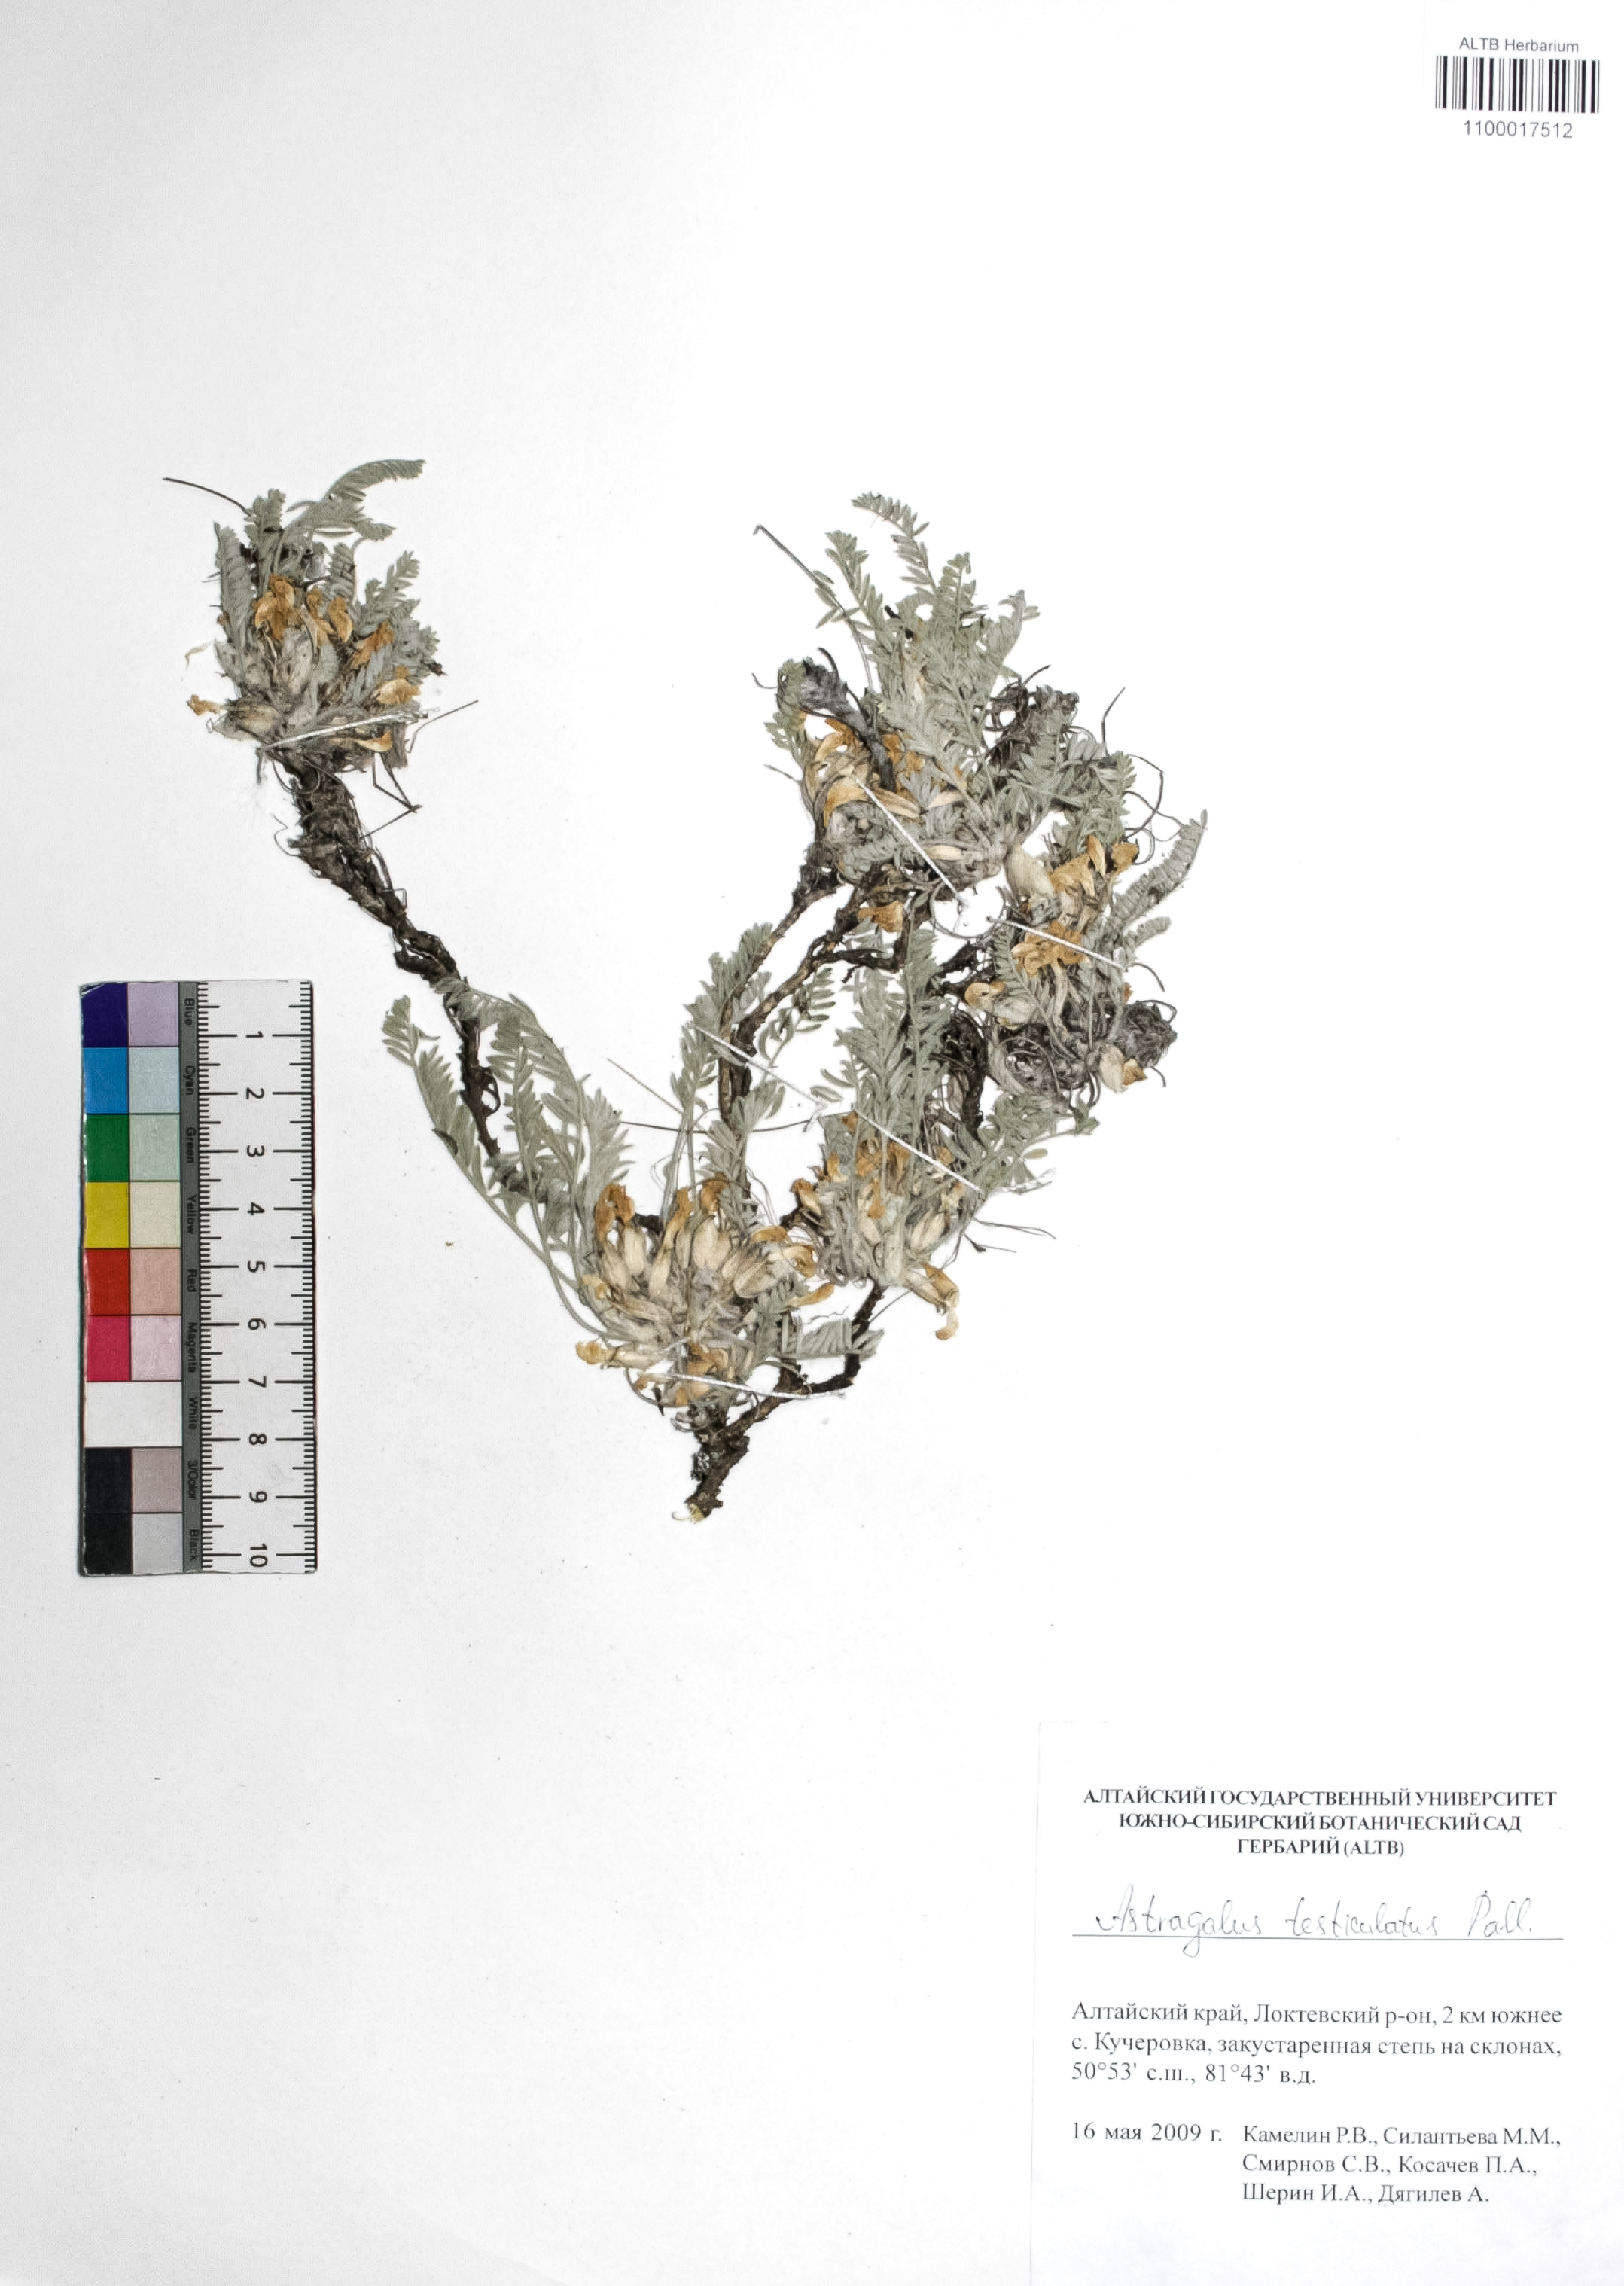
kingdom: Plantae
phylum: Tracheophyta
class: Magnoliopsida
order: Fabales
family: Fabaceae
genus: Astragalus
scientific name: Astragalus testiculatus
